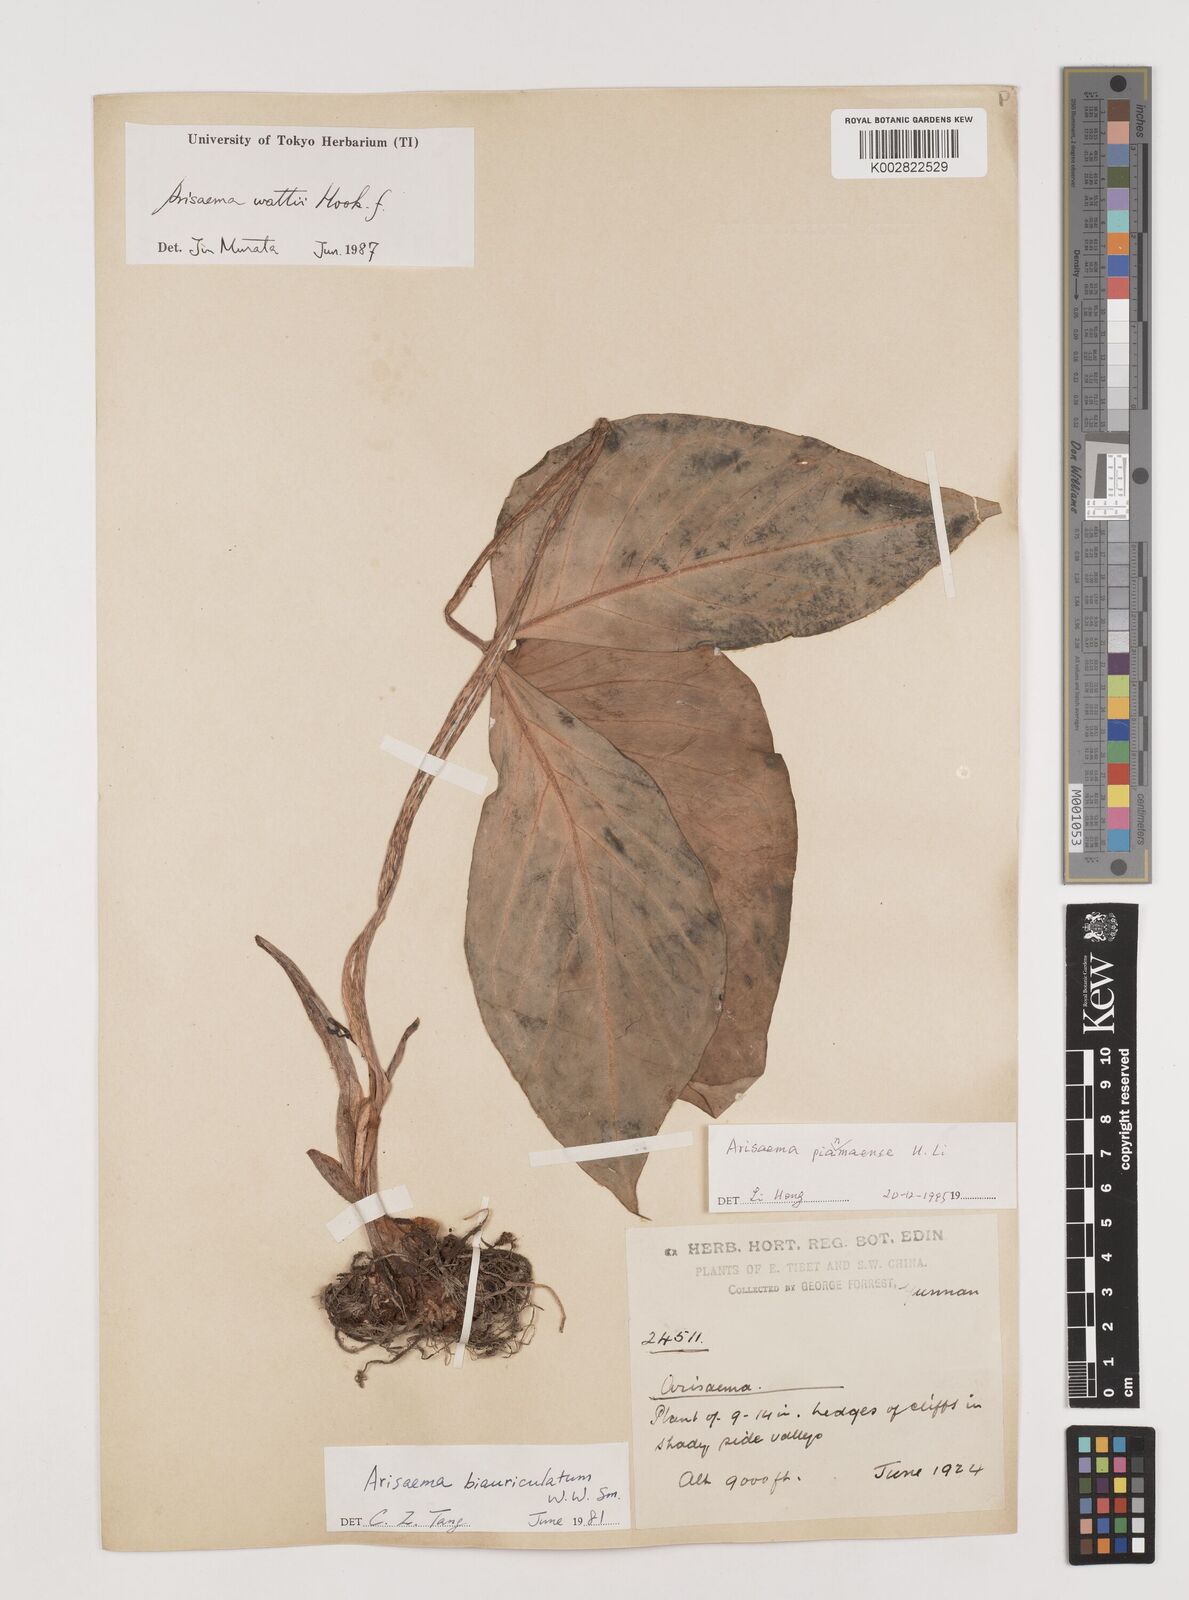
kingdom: Plantae
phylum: Tracheophyta
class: Liliopsida
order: Alismatales
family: Araceae
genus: Arisaema
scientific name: Arisaema pianmaense
